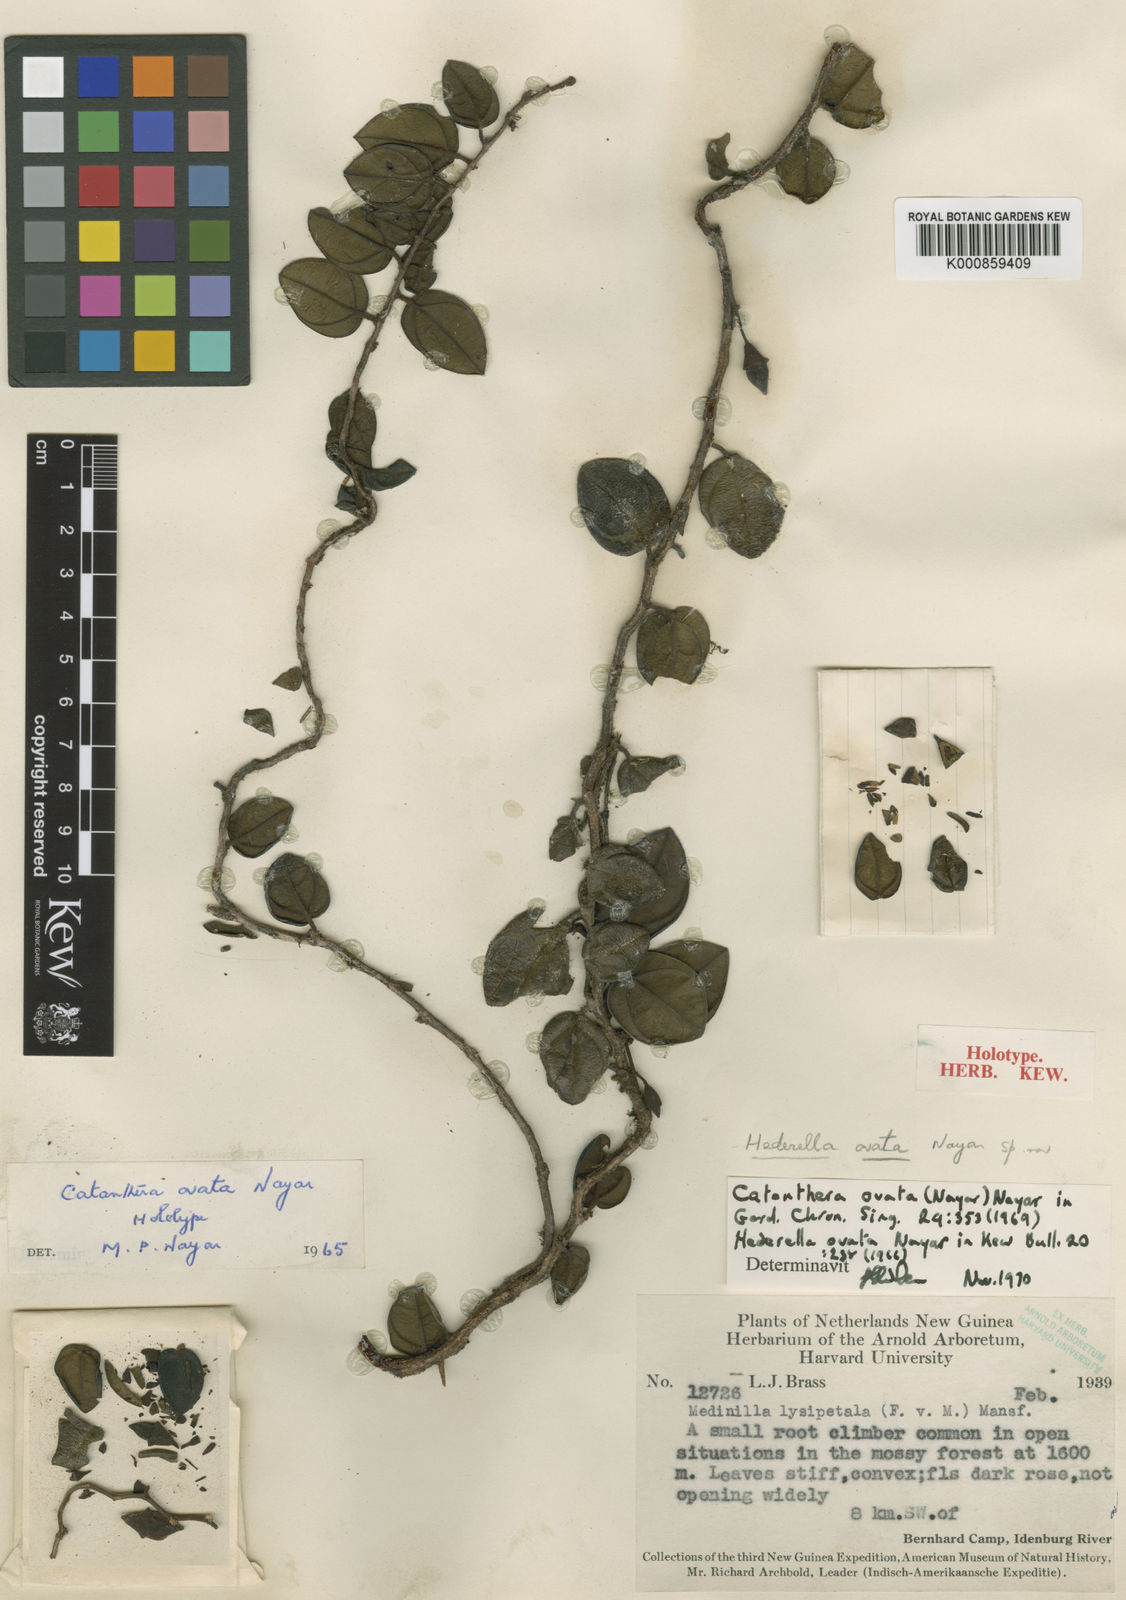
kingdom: Plantae
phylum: Tracheophyta
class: Magnoliopsida
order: Myrtales
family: Melastomataceae
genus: Catanthera
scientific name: Catanthera ovata
